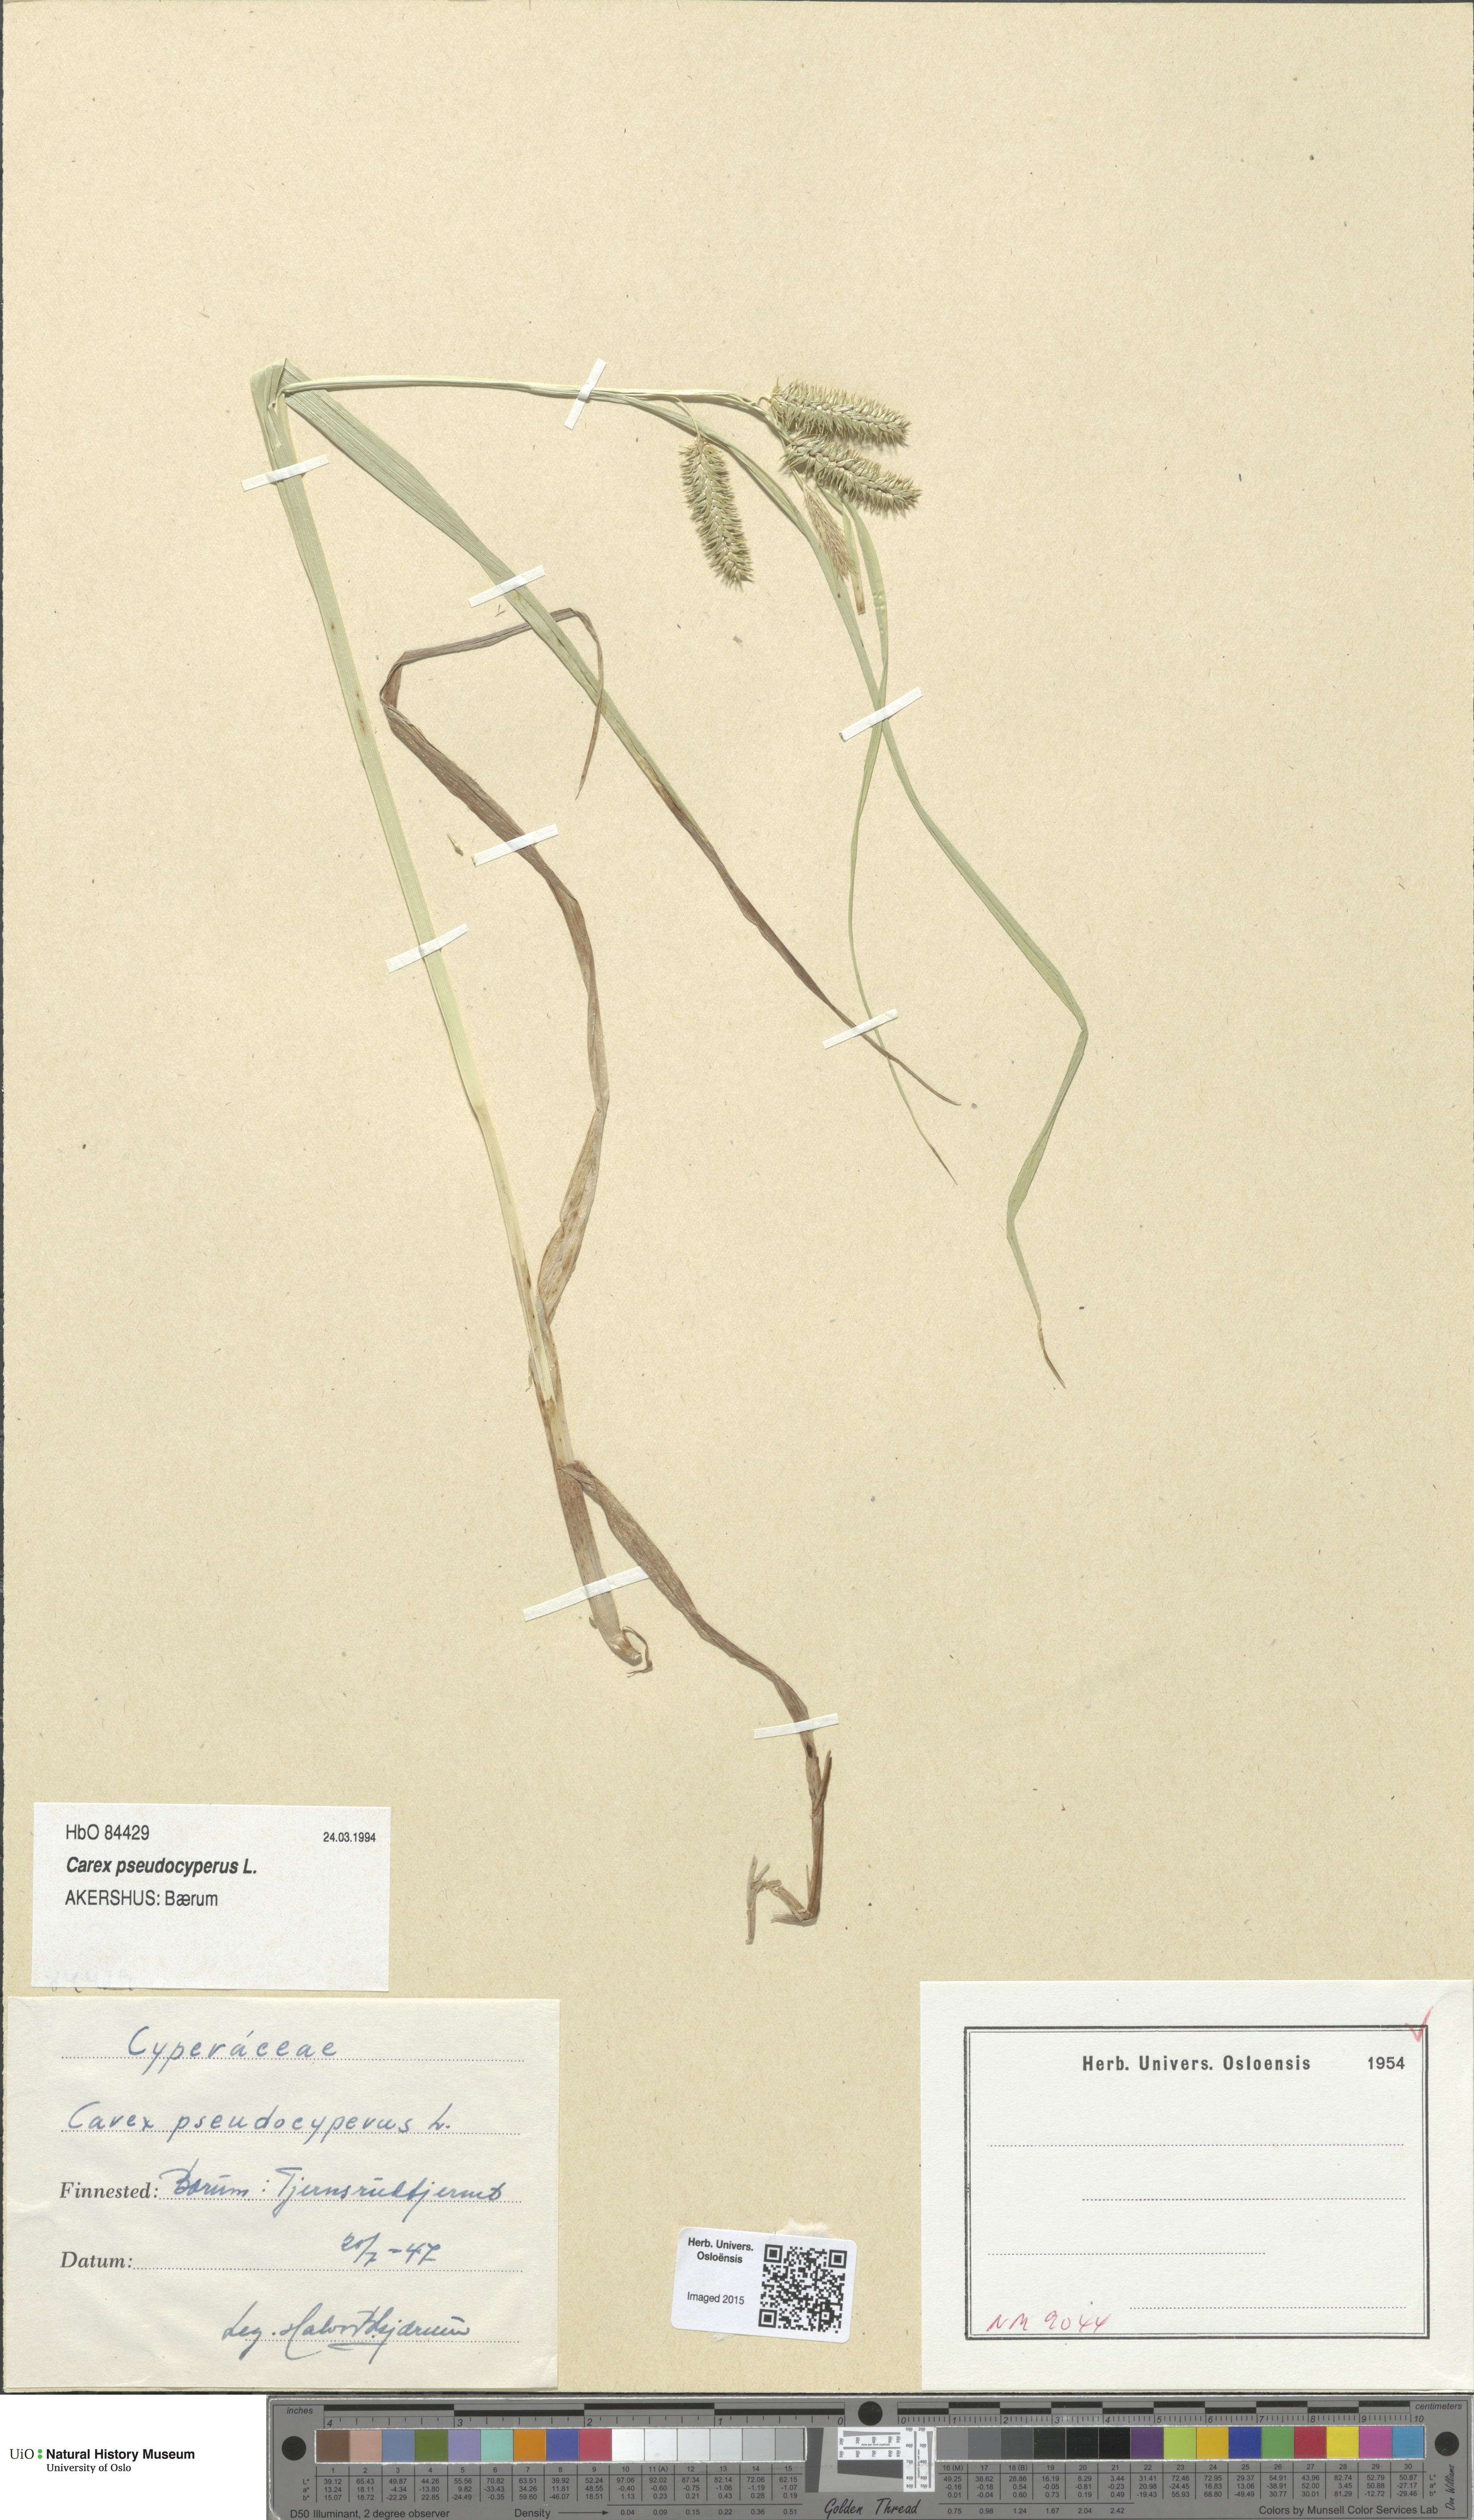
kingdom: Plantae
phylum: Tracheophyta
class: Liliopsida
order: Poales
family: Cyperaceae
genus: Carex
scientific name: Carex pseudocyperus
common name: Cyperus sedge
